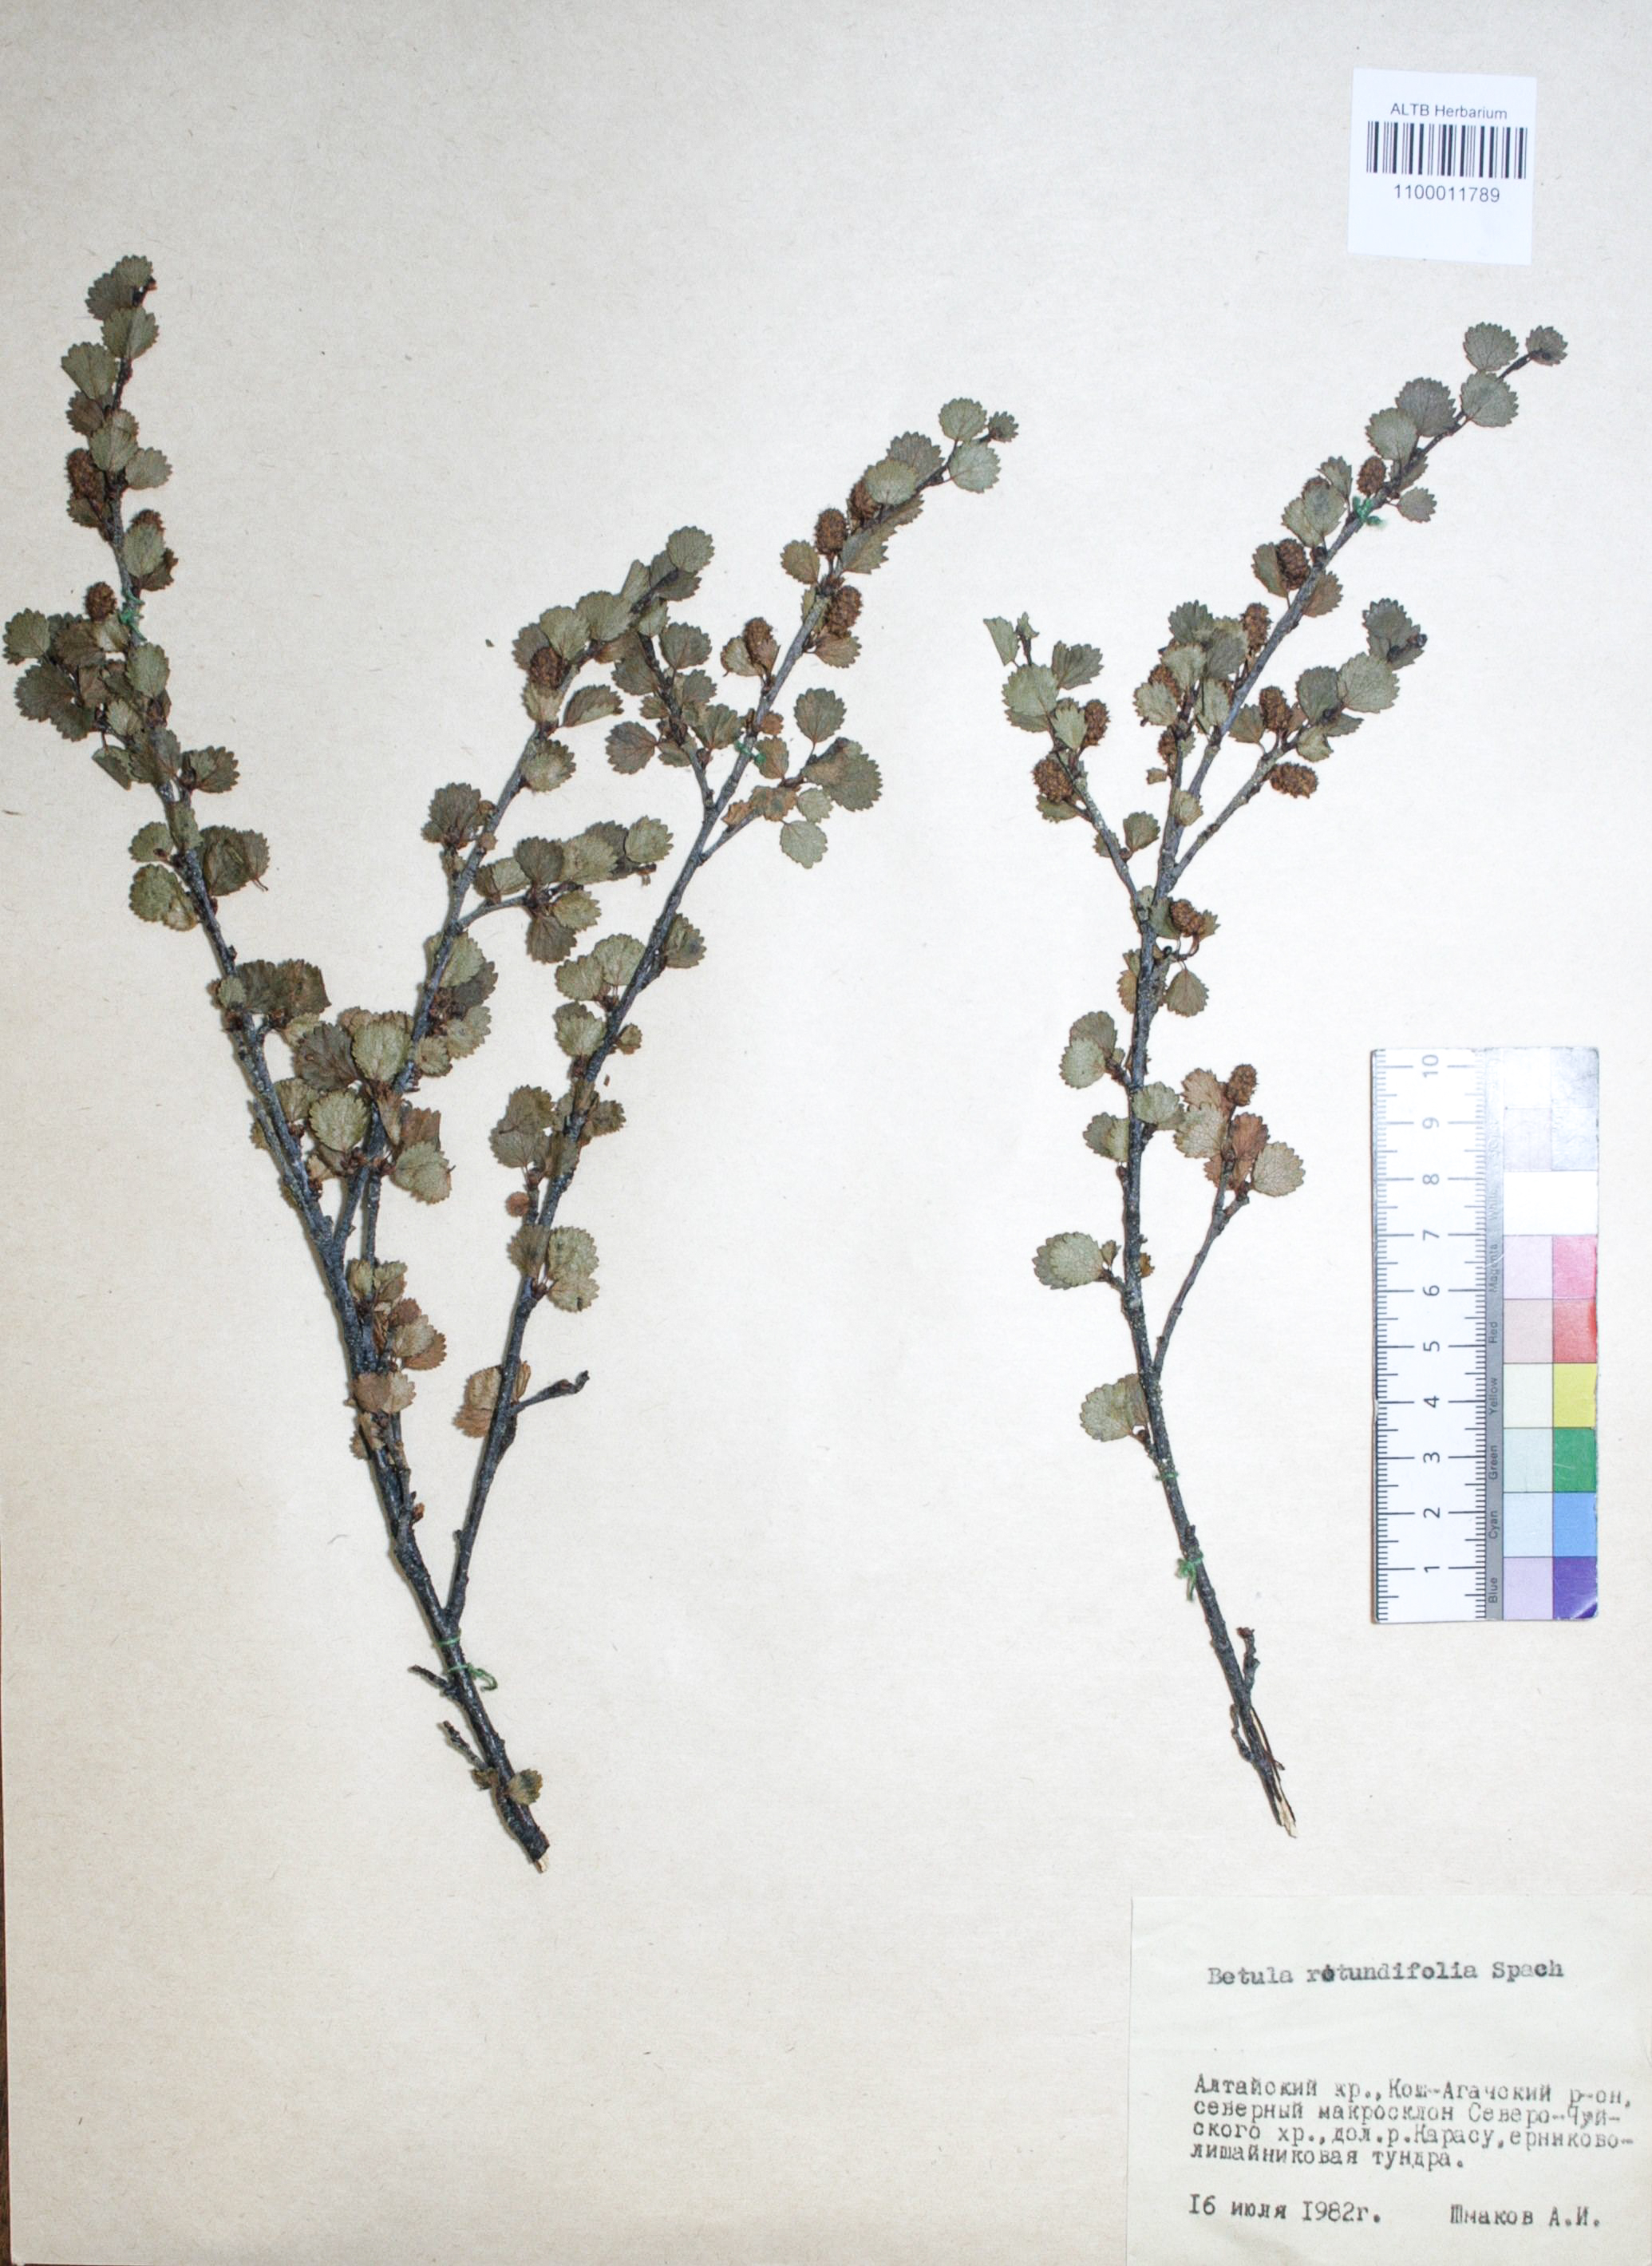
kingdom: Plantae
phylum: Tracheophyta
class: Magnoliopsida
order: Fagales
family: Betulaceae
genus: Betula
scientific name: Betula glandulosa
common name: Dwarf birch
